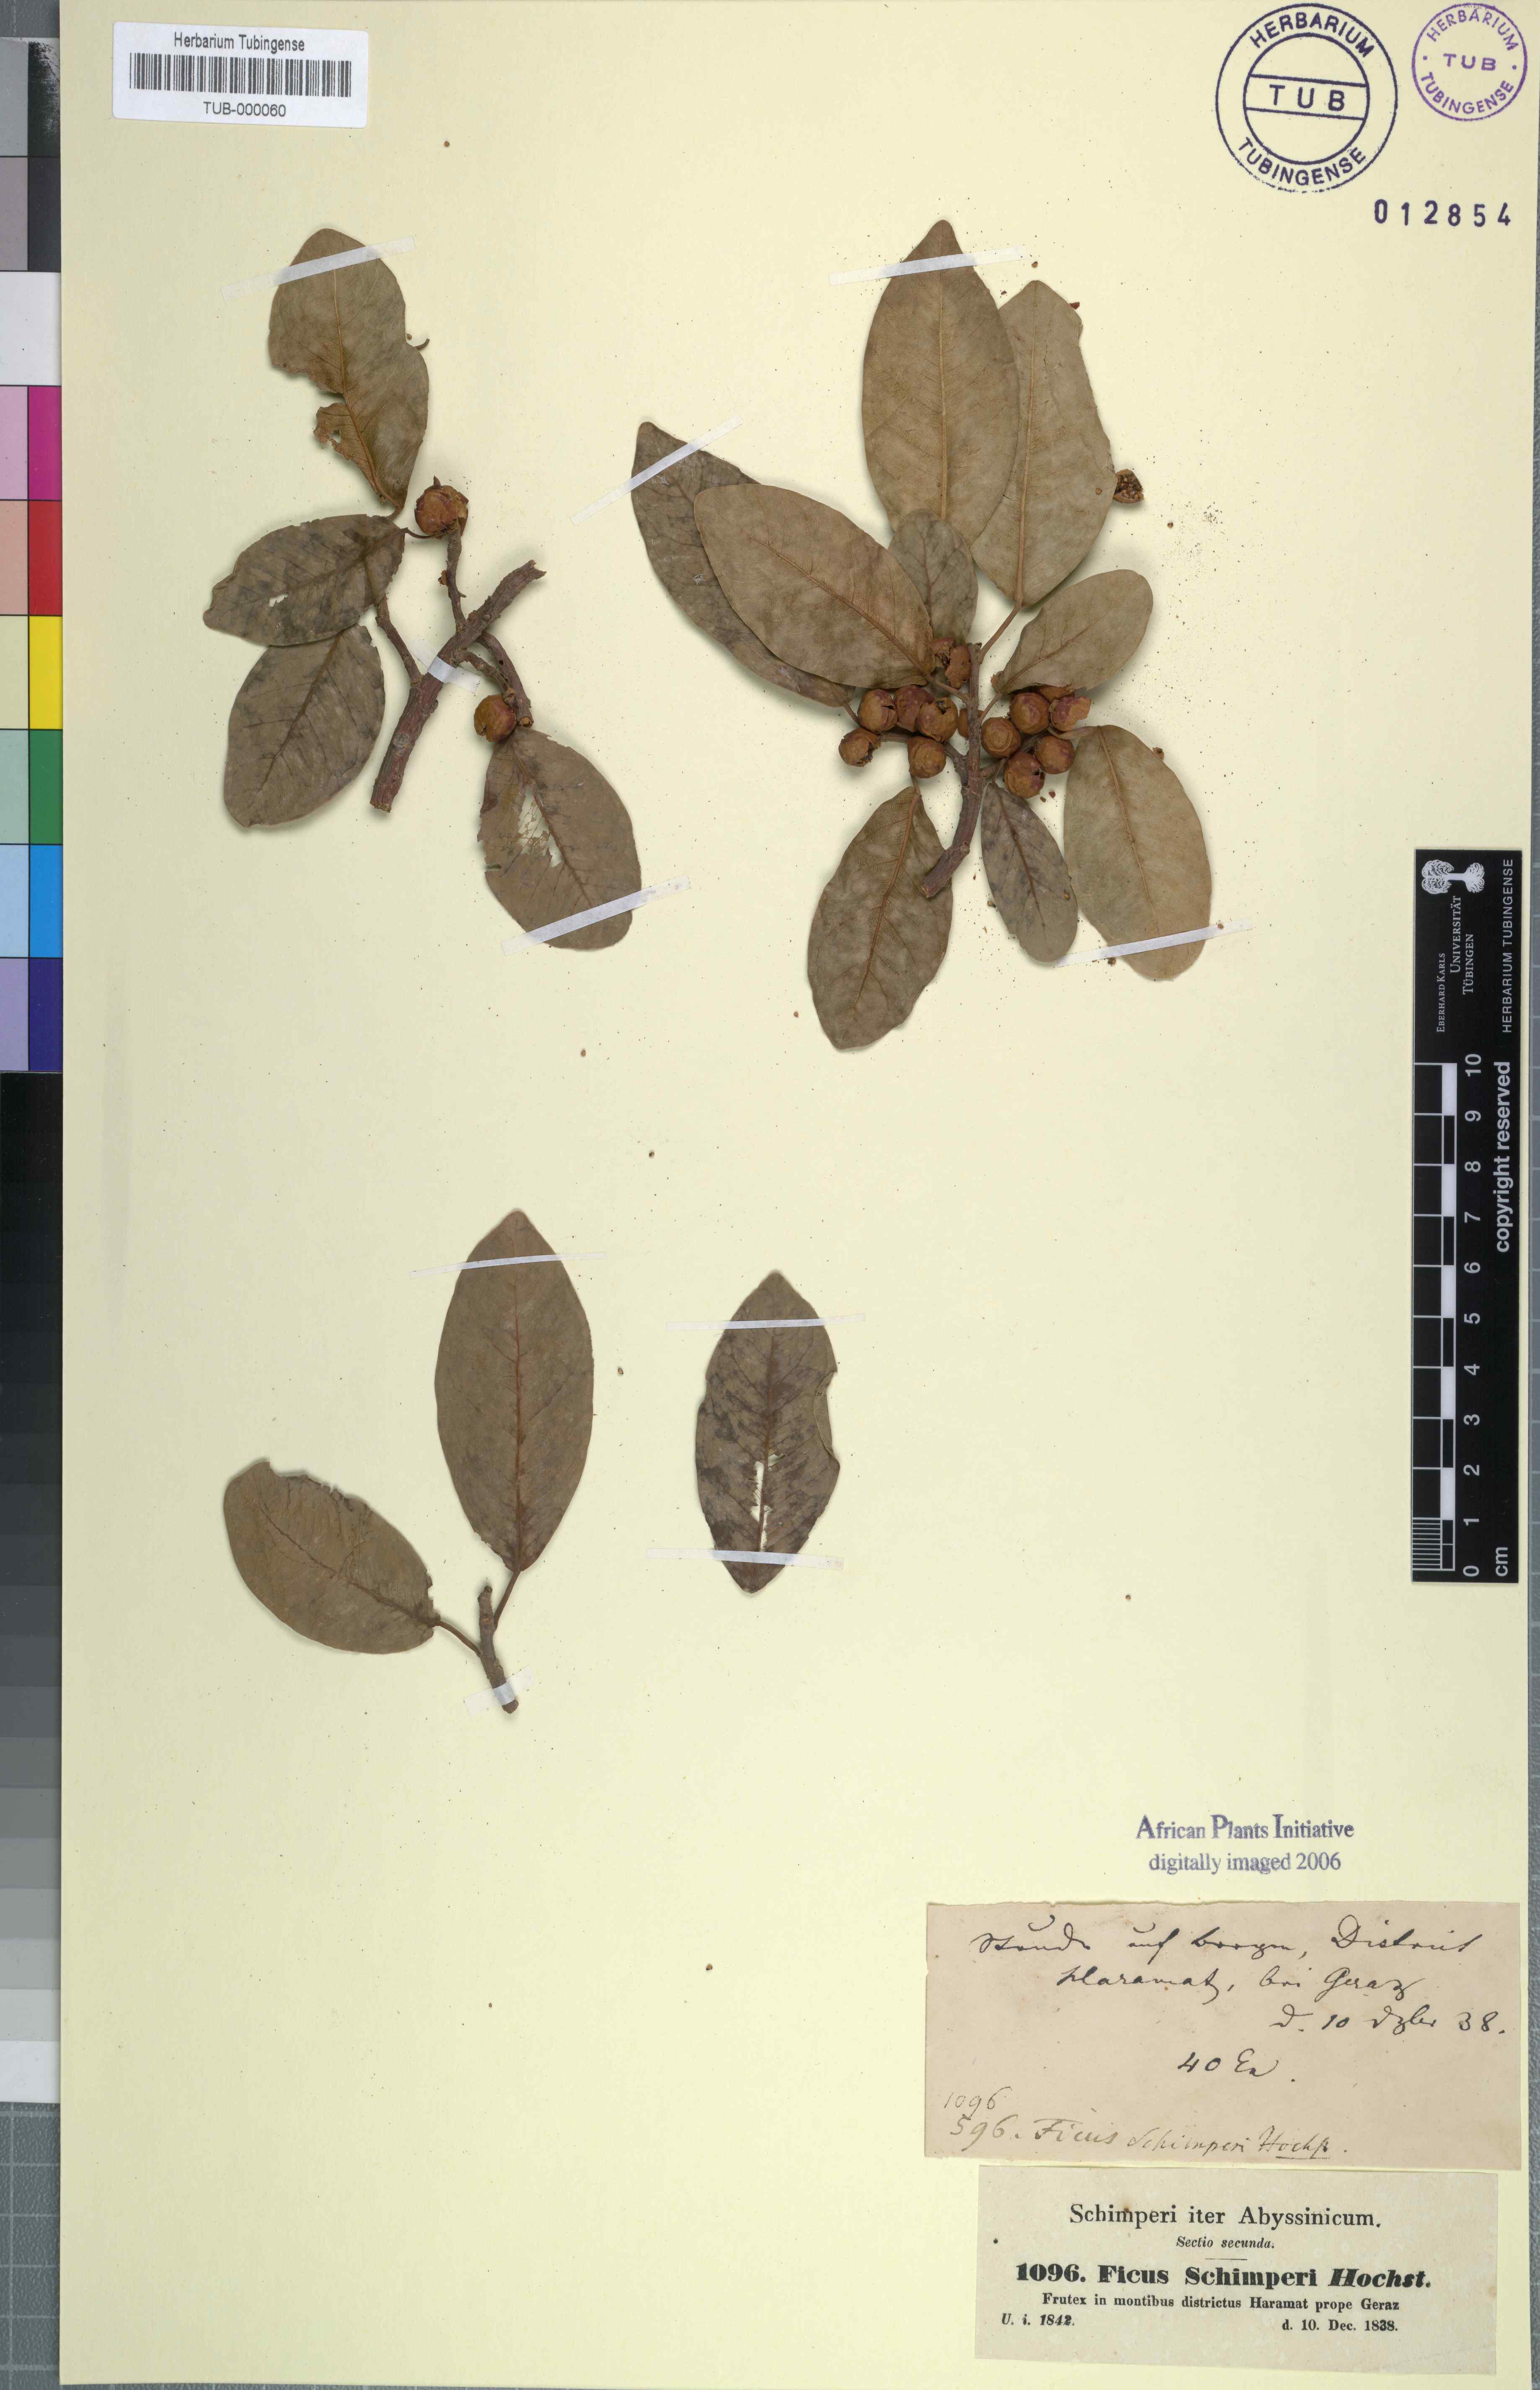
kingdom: Plantae
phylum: Tracheophyta
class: Magnoliopsida
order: Rosales
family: Moraceae
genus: Ficus
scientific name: Ficus thonningii
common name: Fig
